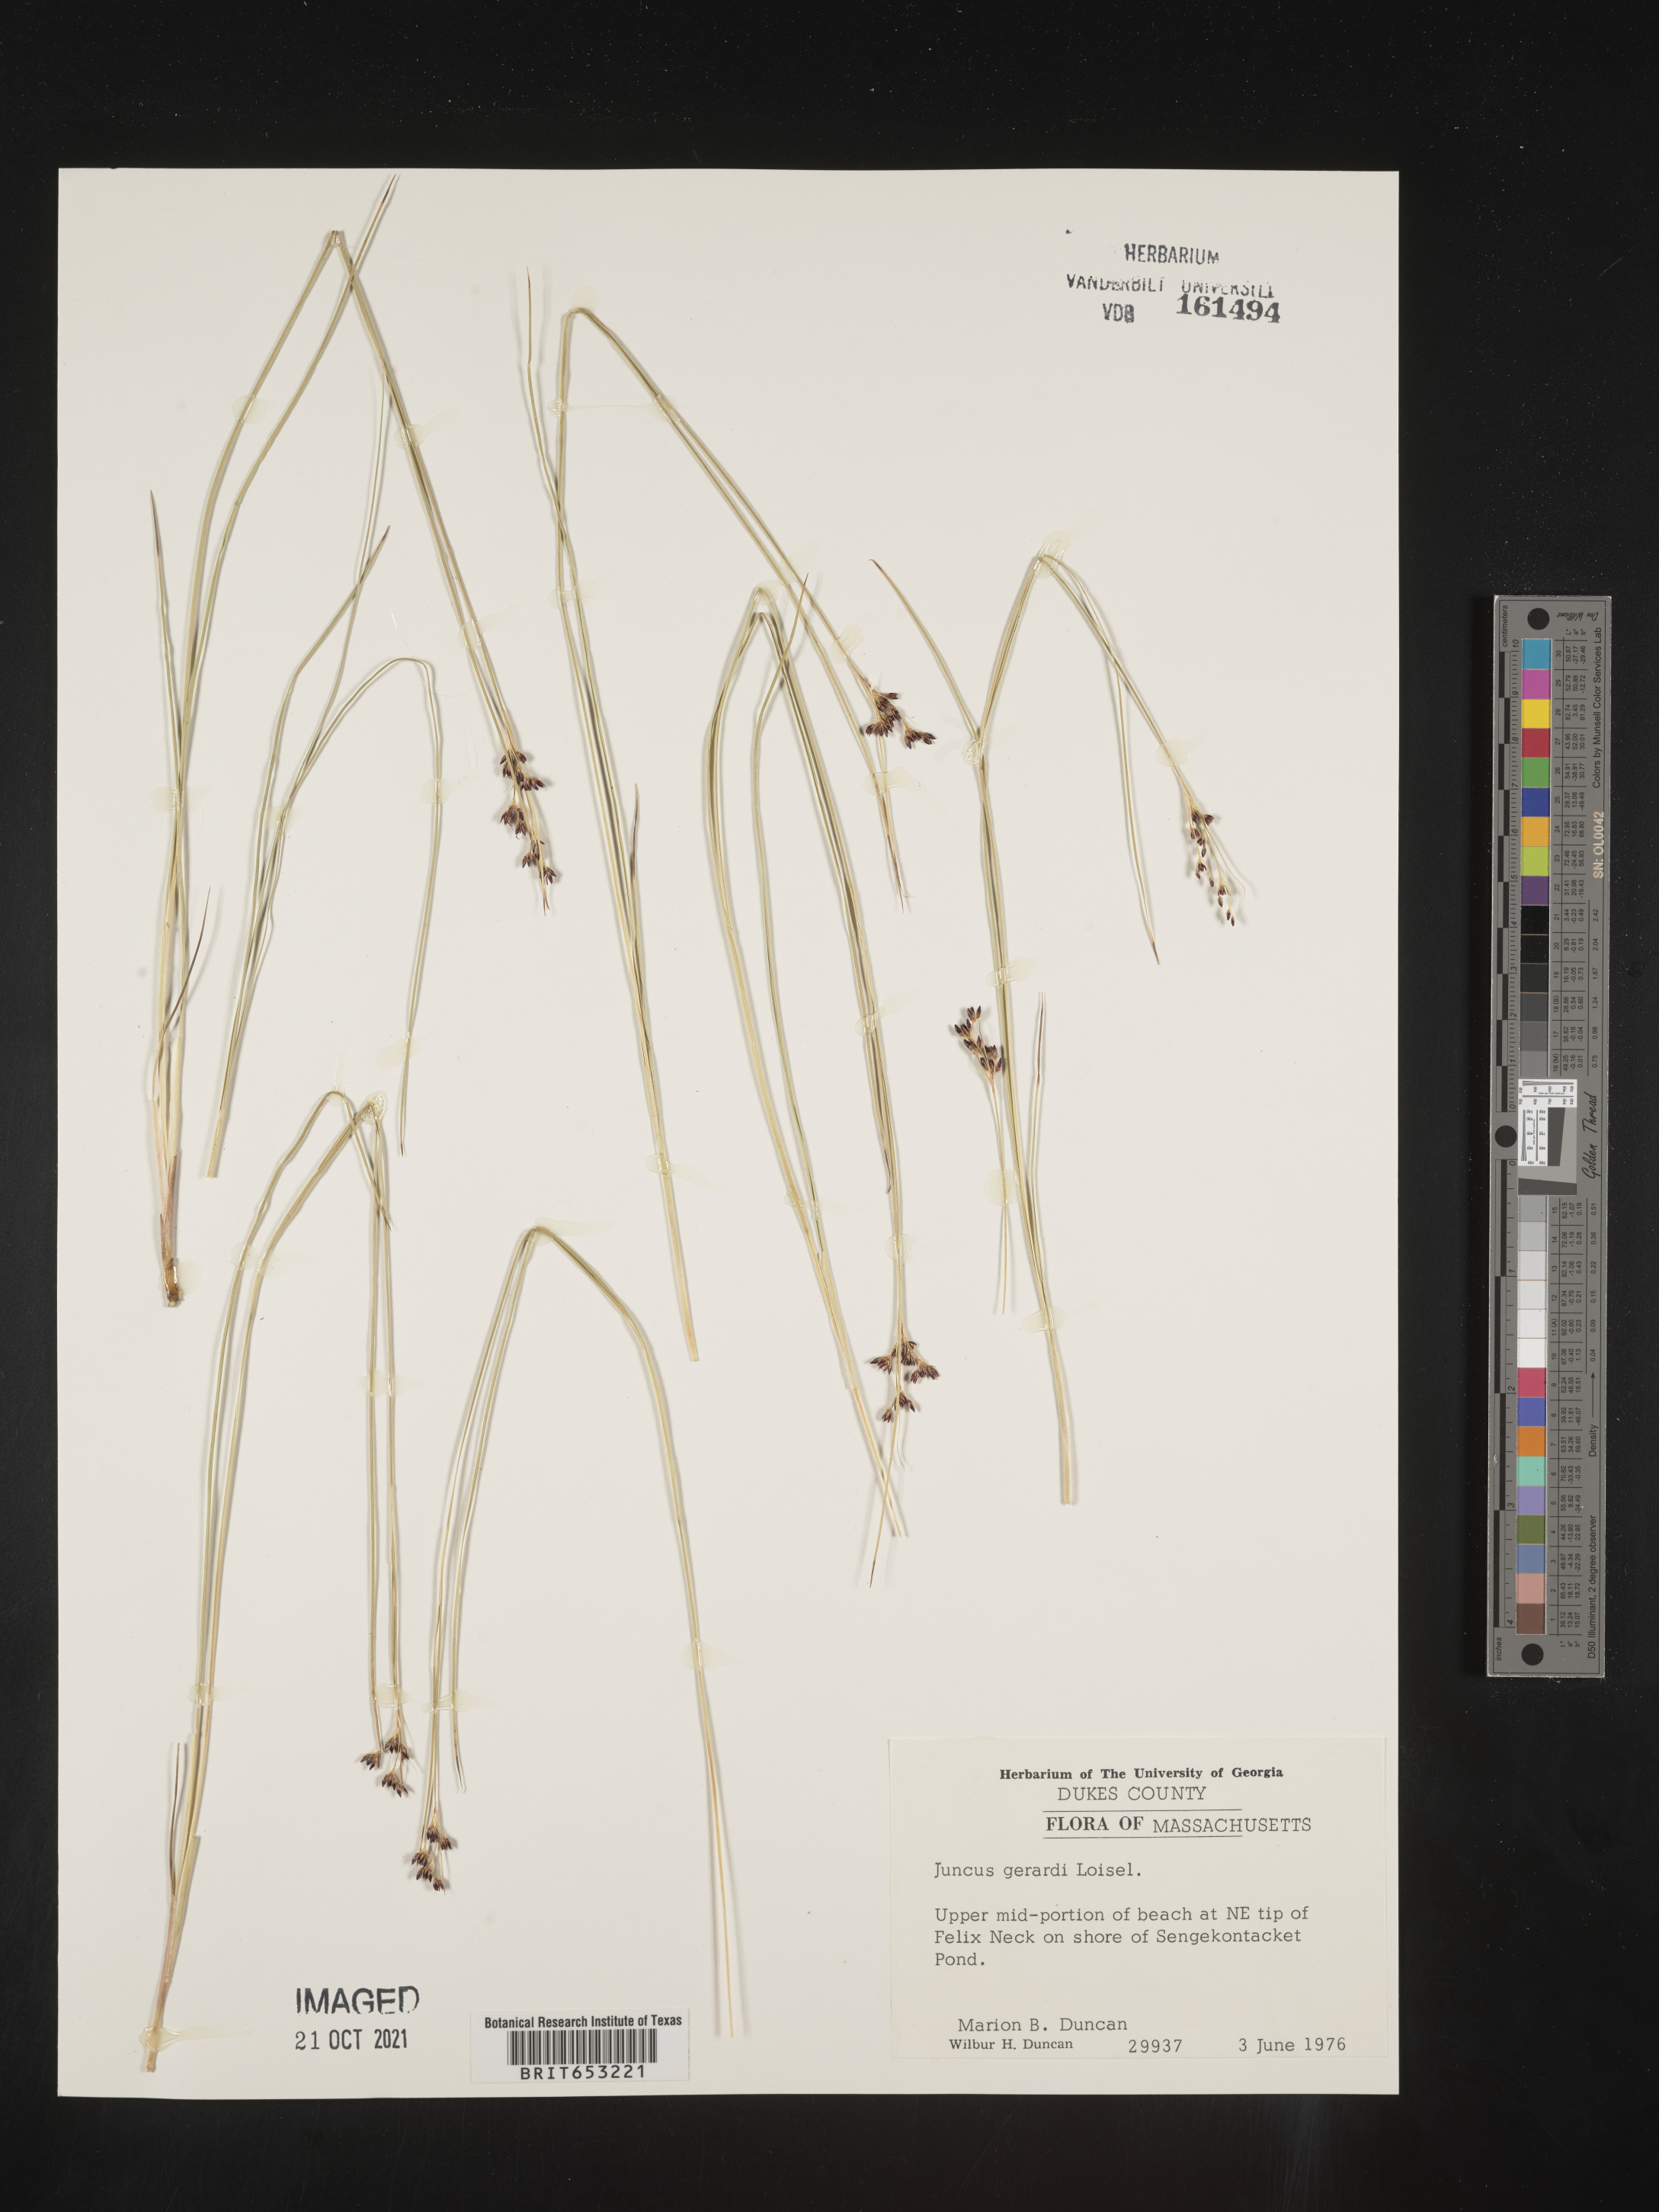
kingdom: Plantae
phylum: Tracheophyta
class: Liliopsida
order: Poales
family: Juncaceae
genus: Juncus
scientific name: Juncus gerardi
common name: Saltmarsh rush
